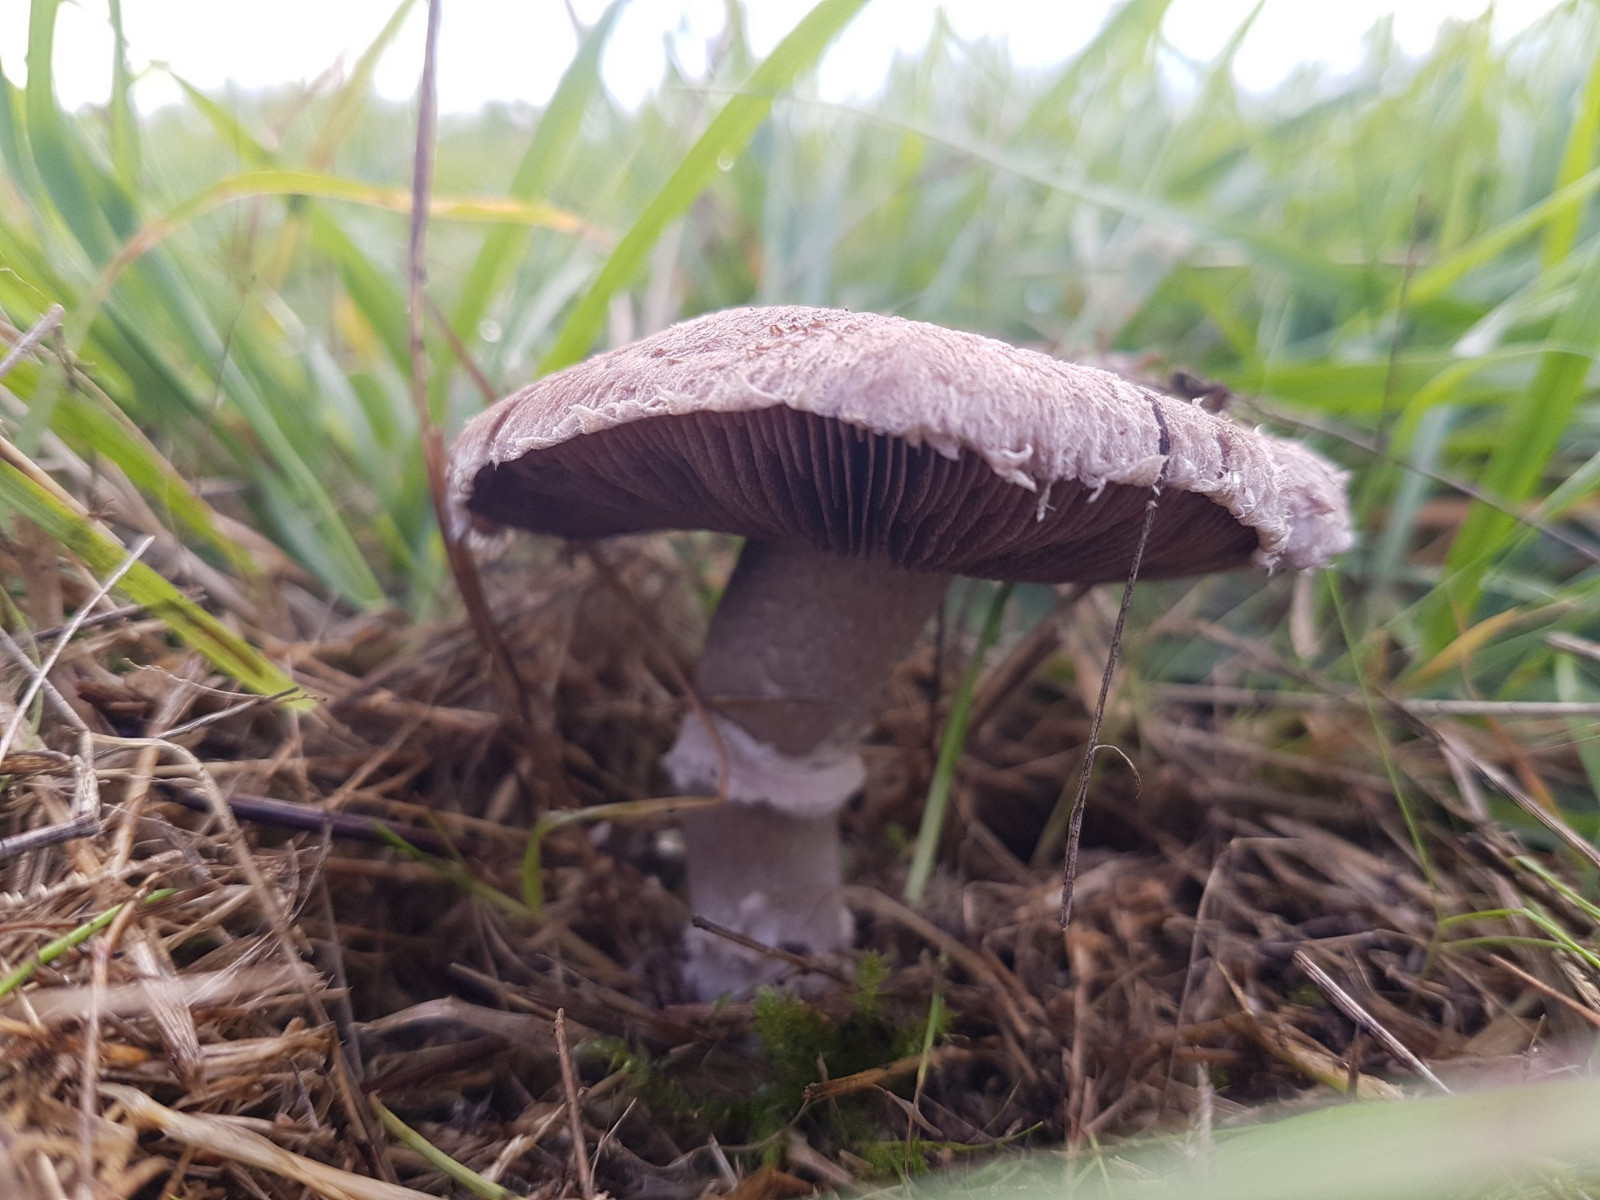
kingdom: Fungi
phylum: Basidiomycota
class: Agaricomycetes
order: Agaricales
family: Agaricaceae
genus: Agaricus
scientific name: Agaricus cupreobrunneus
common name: kobberbrun champignon
